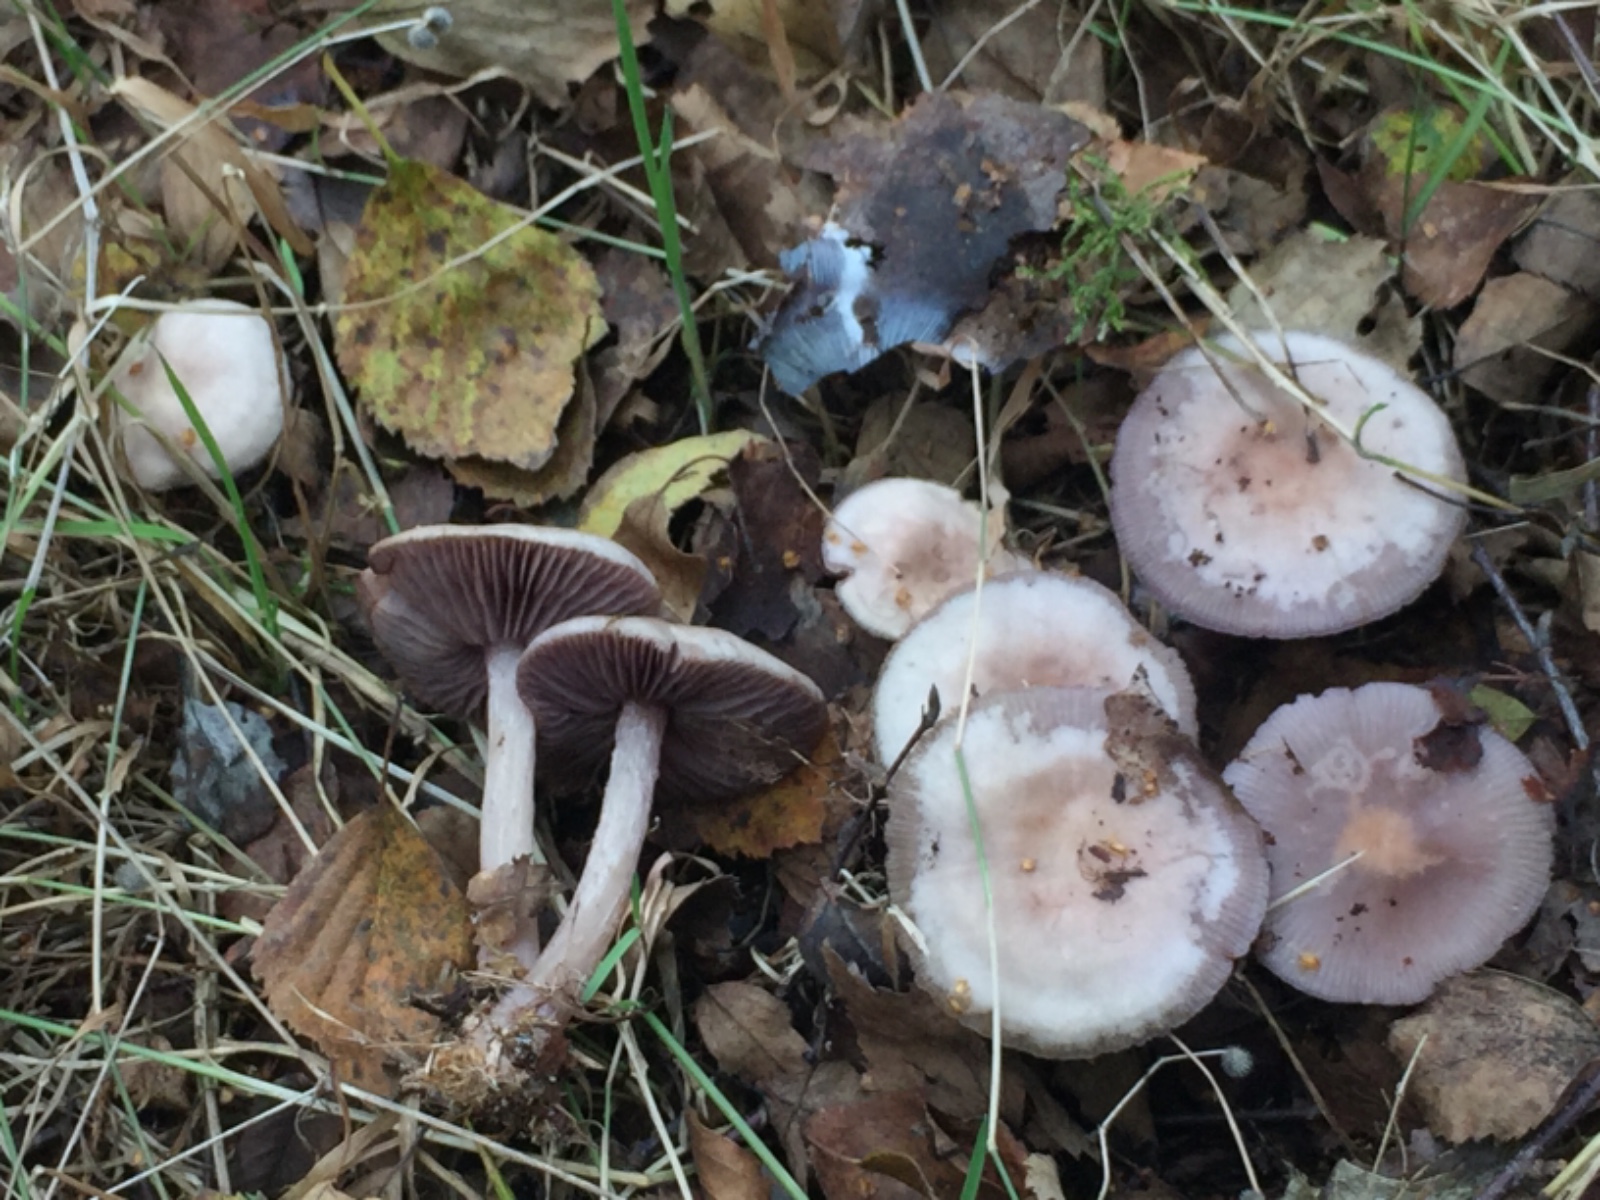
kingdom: Fungi
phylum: Basidiomycota
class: Agaricomycetes
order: Agaricales
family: Mycenaceae
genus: Mycena
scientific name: Mycena pelianthina
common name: mørkbladet huesvamp
